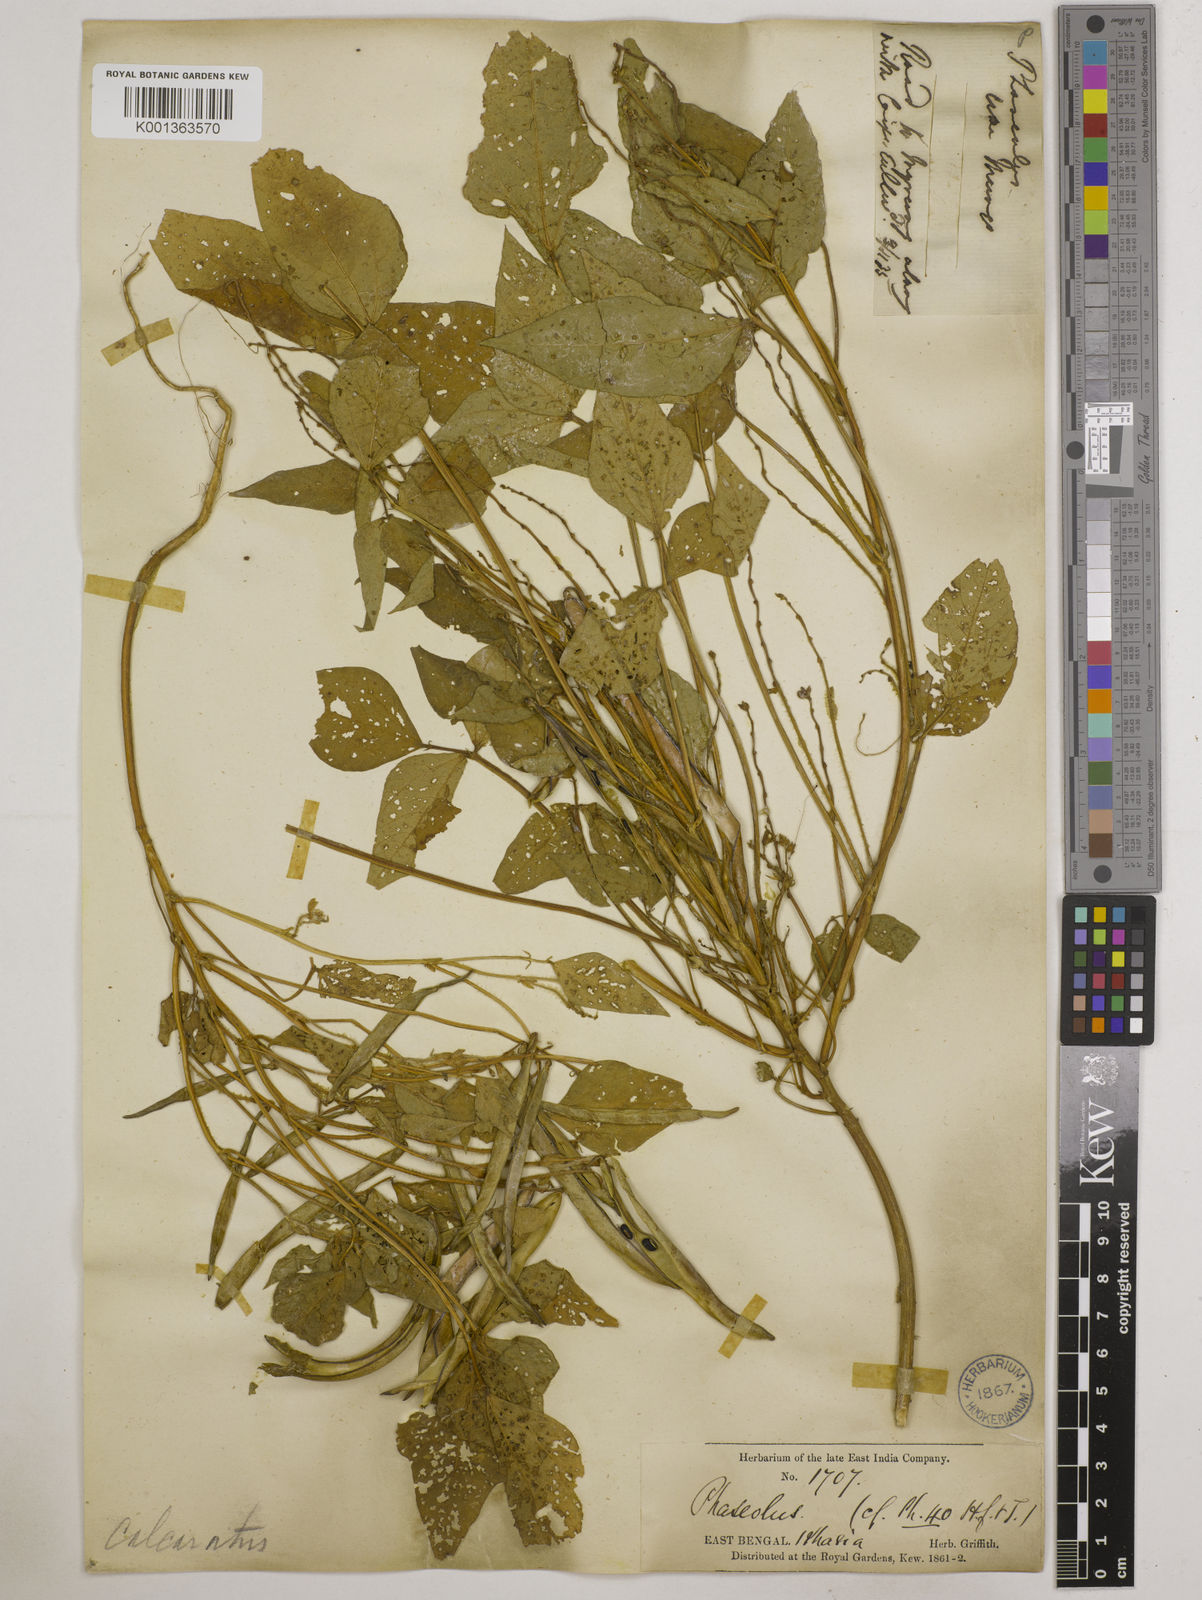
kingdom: Plantae
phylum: Tracheophyta
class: Magnoliopsida
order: Fabales
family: Fabaceae
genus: Vigna
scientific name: Vigna umbellata
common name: Oriental-bean
